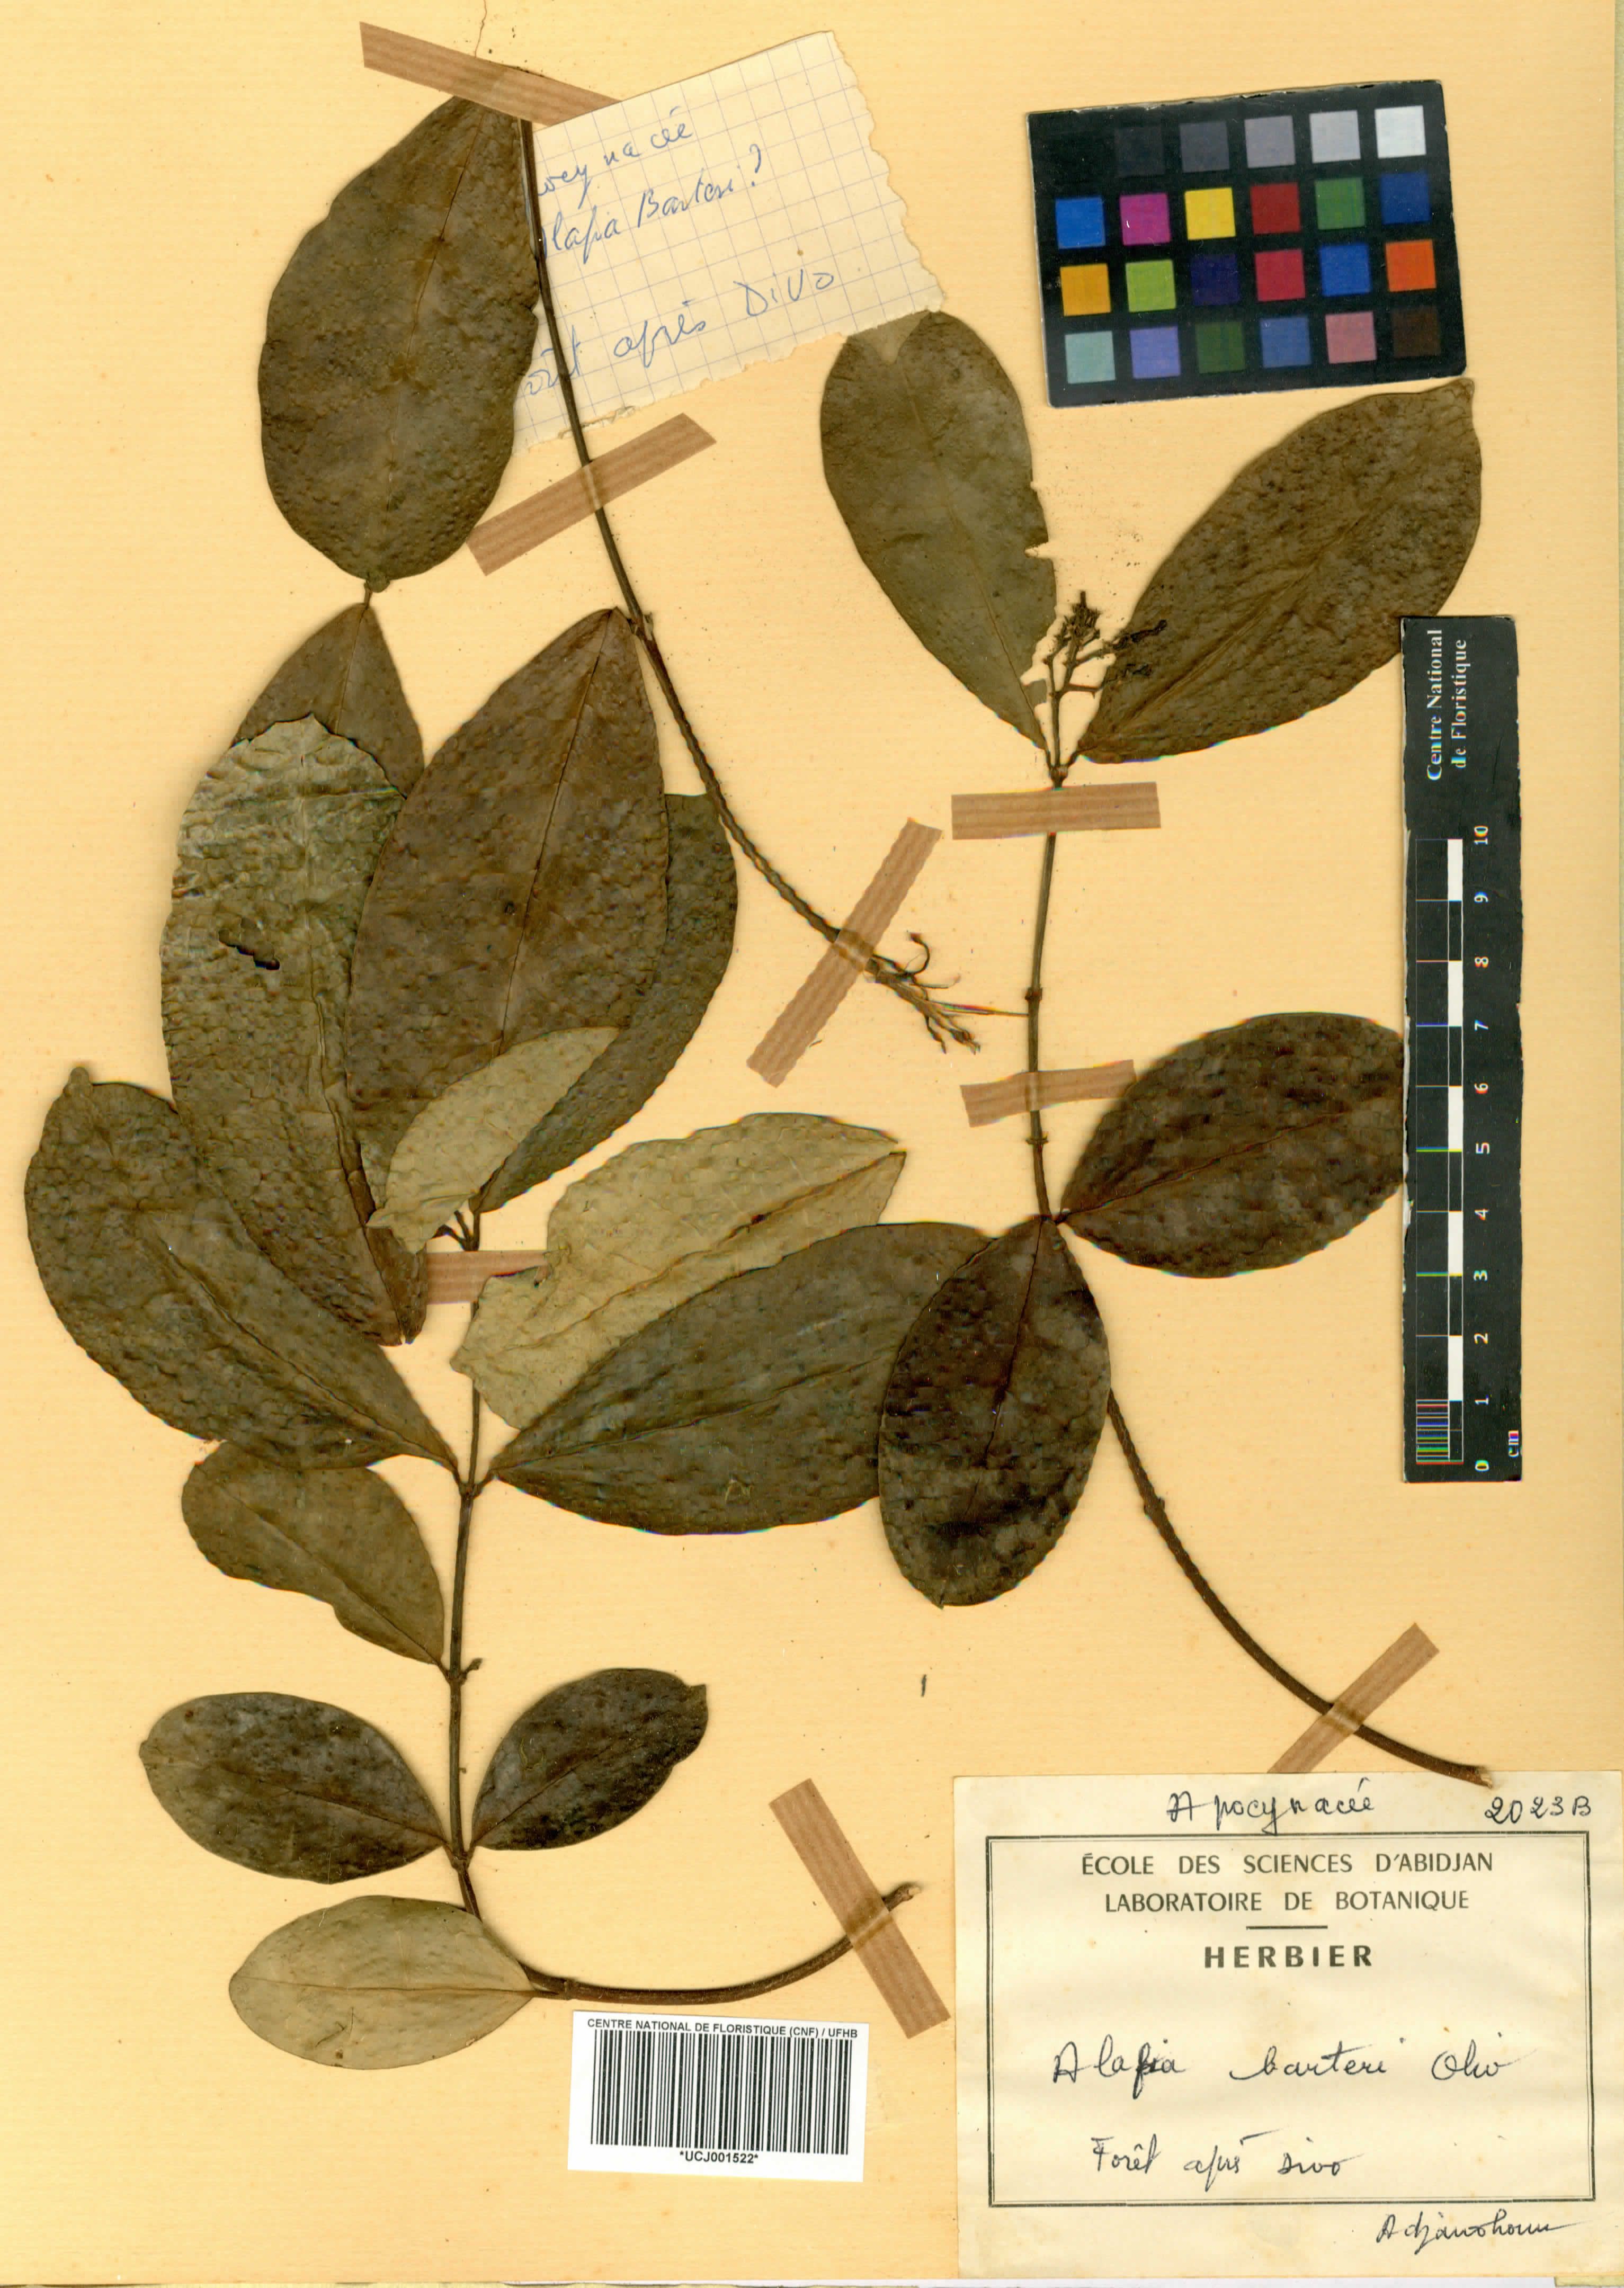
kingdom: Plantae
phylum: Tracheophyta
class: Magnoliopsida
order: Gentianales
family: Apocynaceae
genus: Alafia
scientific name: Alafia barteri
